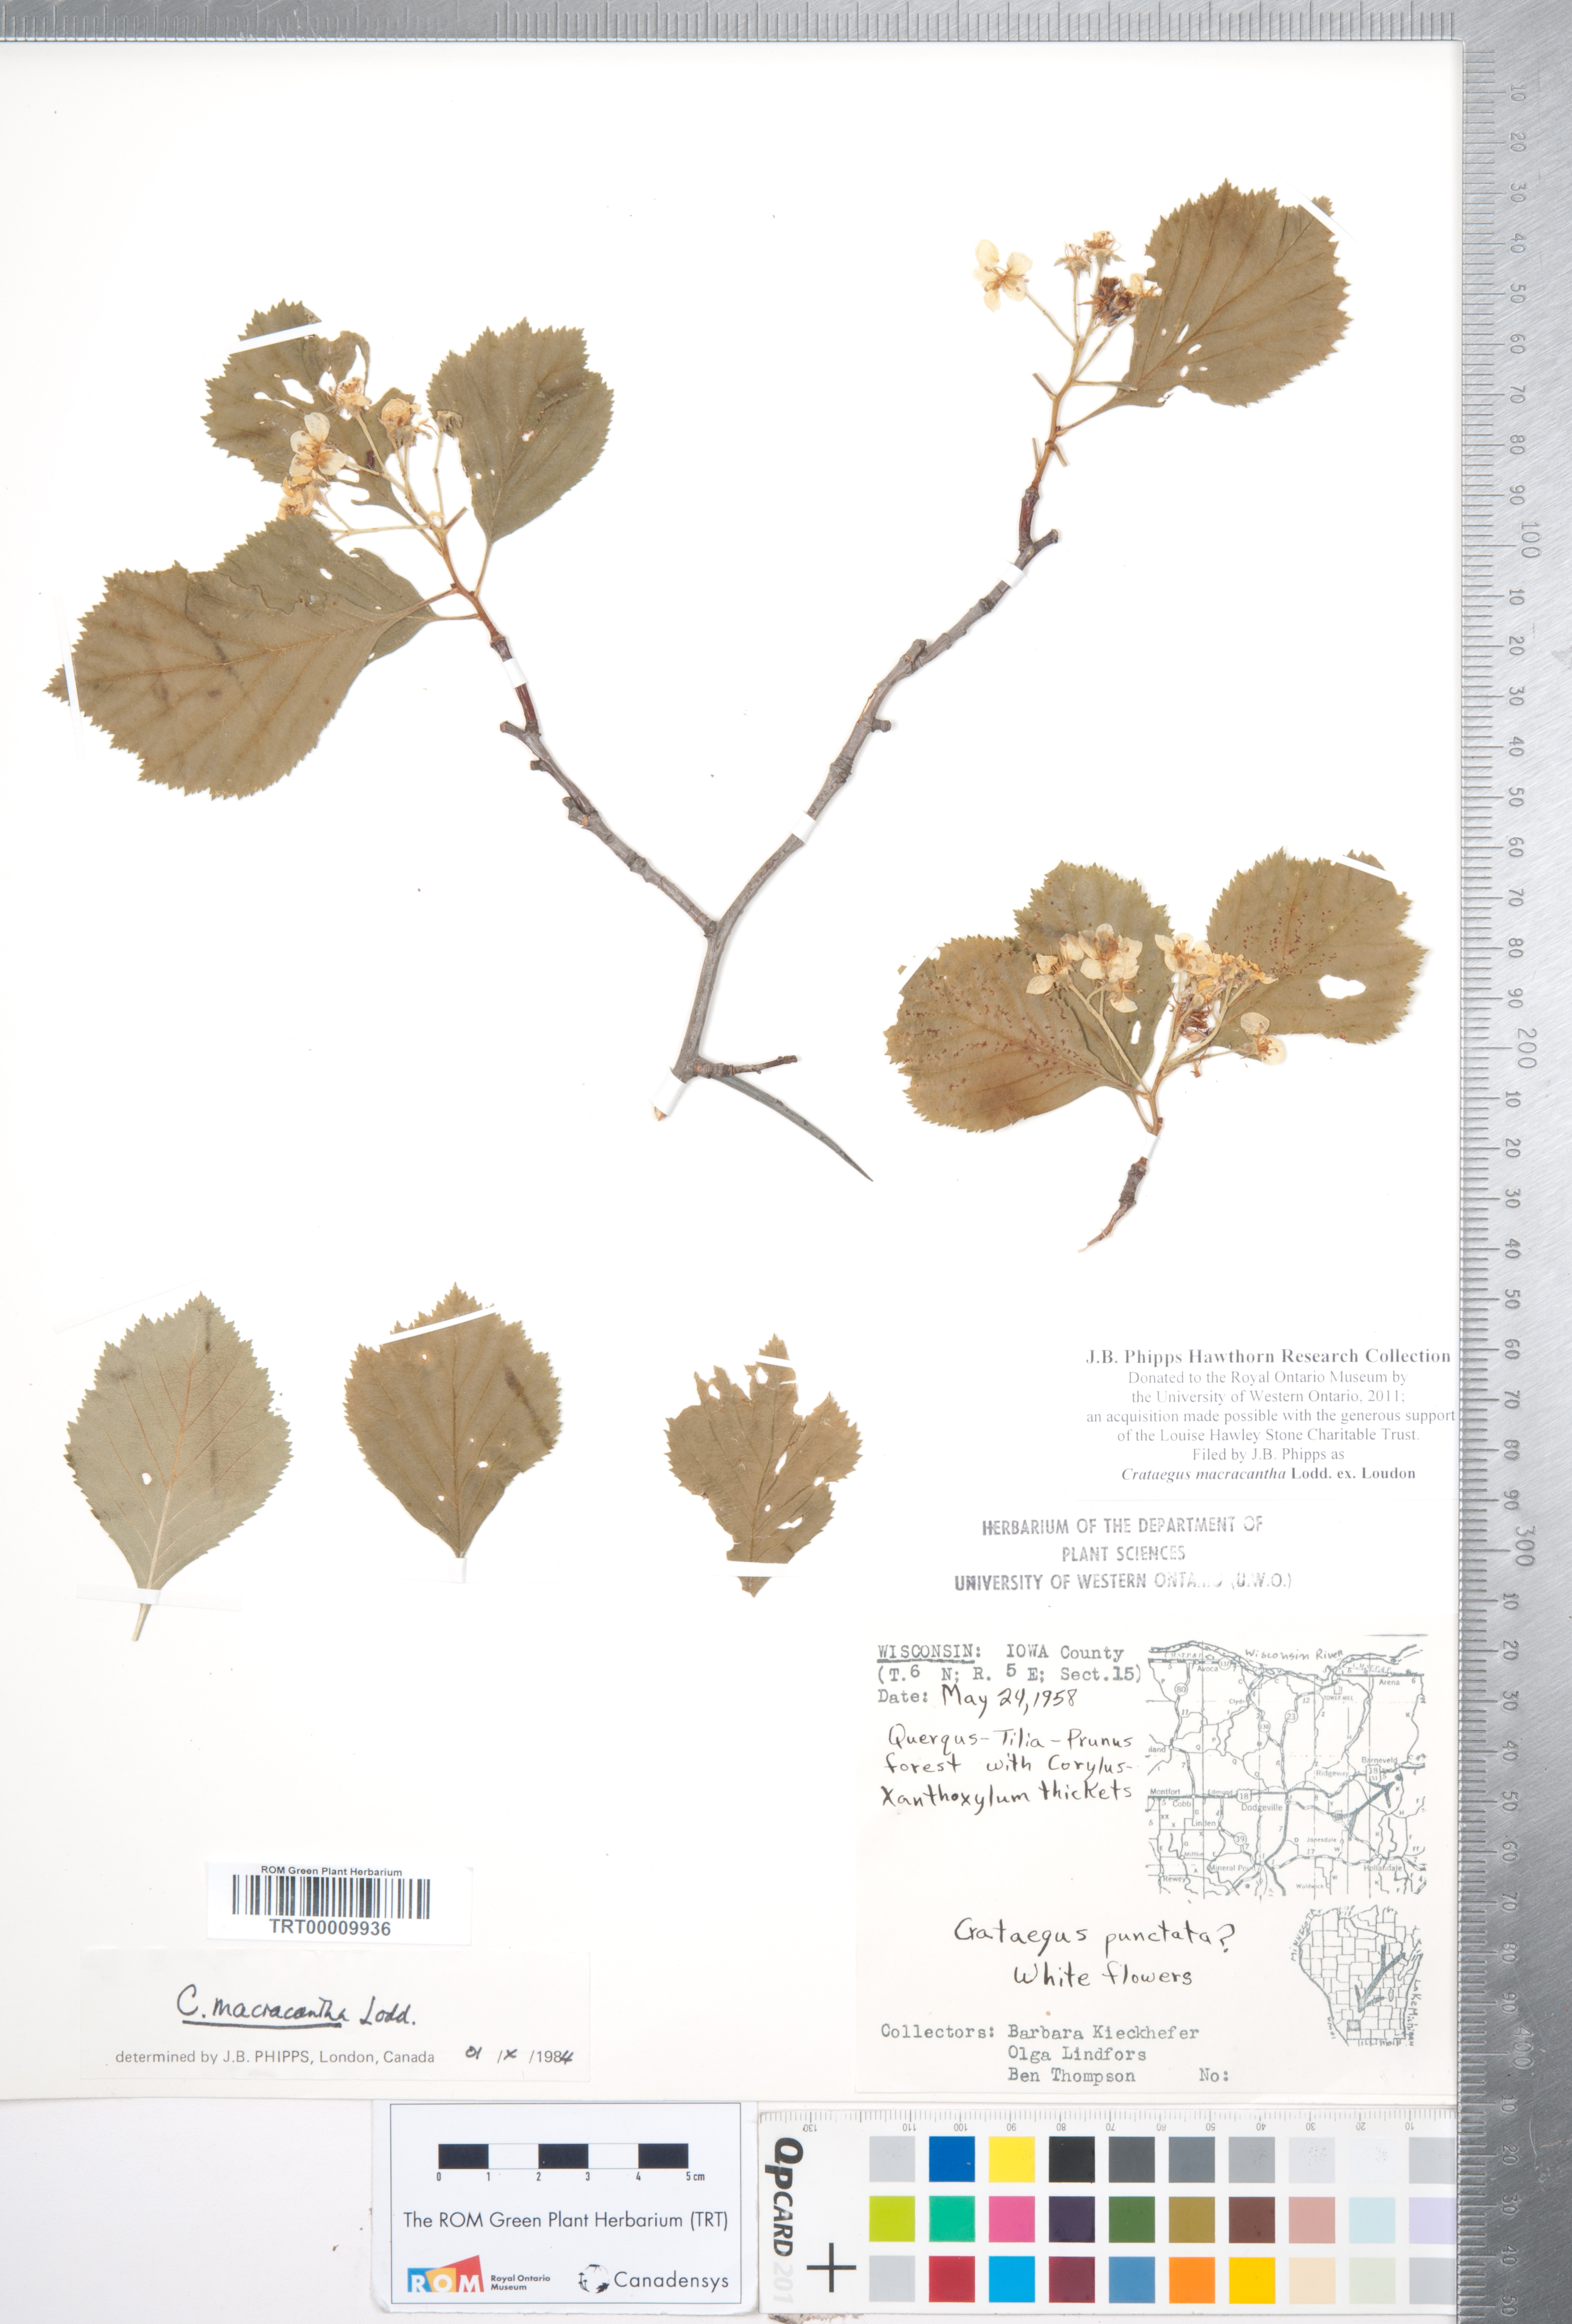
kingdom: Plantae
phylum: Tracheophyta
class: Magnoliopsida
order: Rosales
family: Rosaceae
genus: Crataegus
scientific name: Crataegus macracantha
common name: Large-thorn hawthorn
